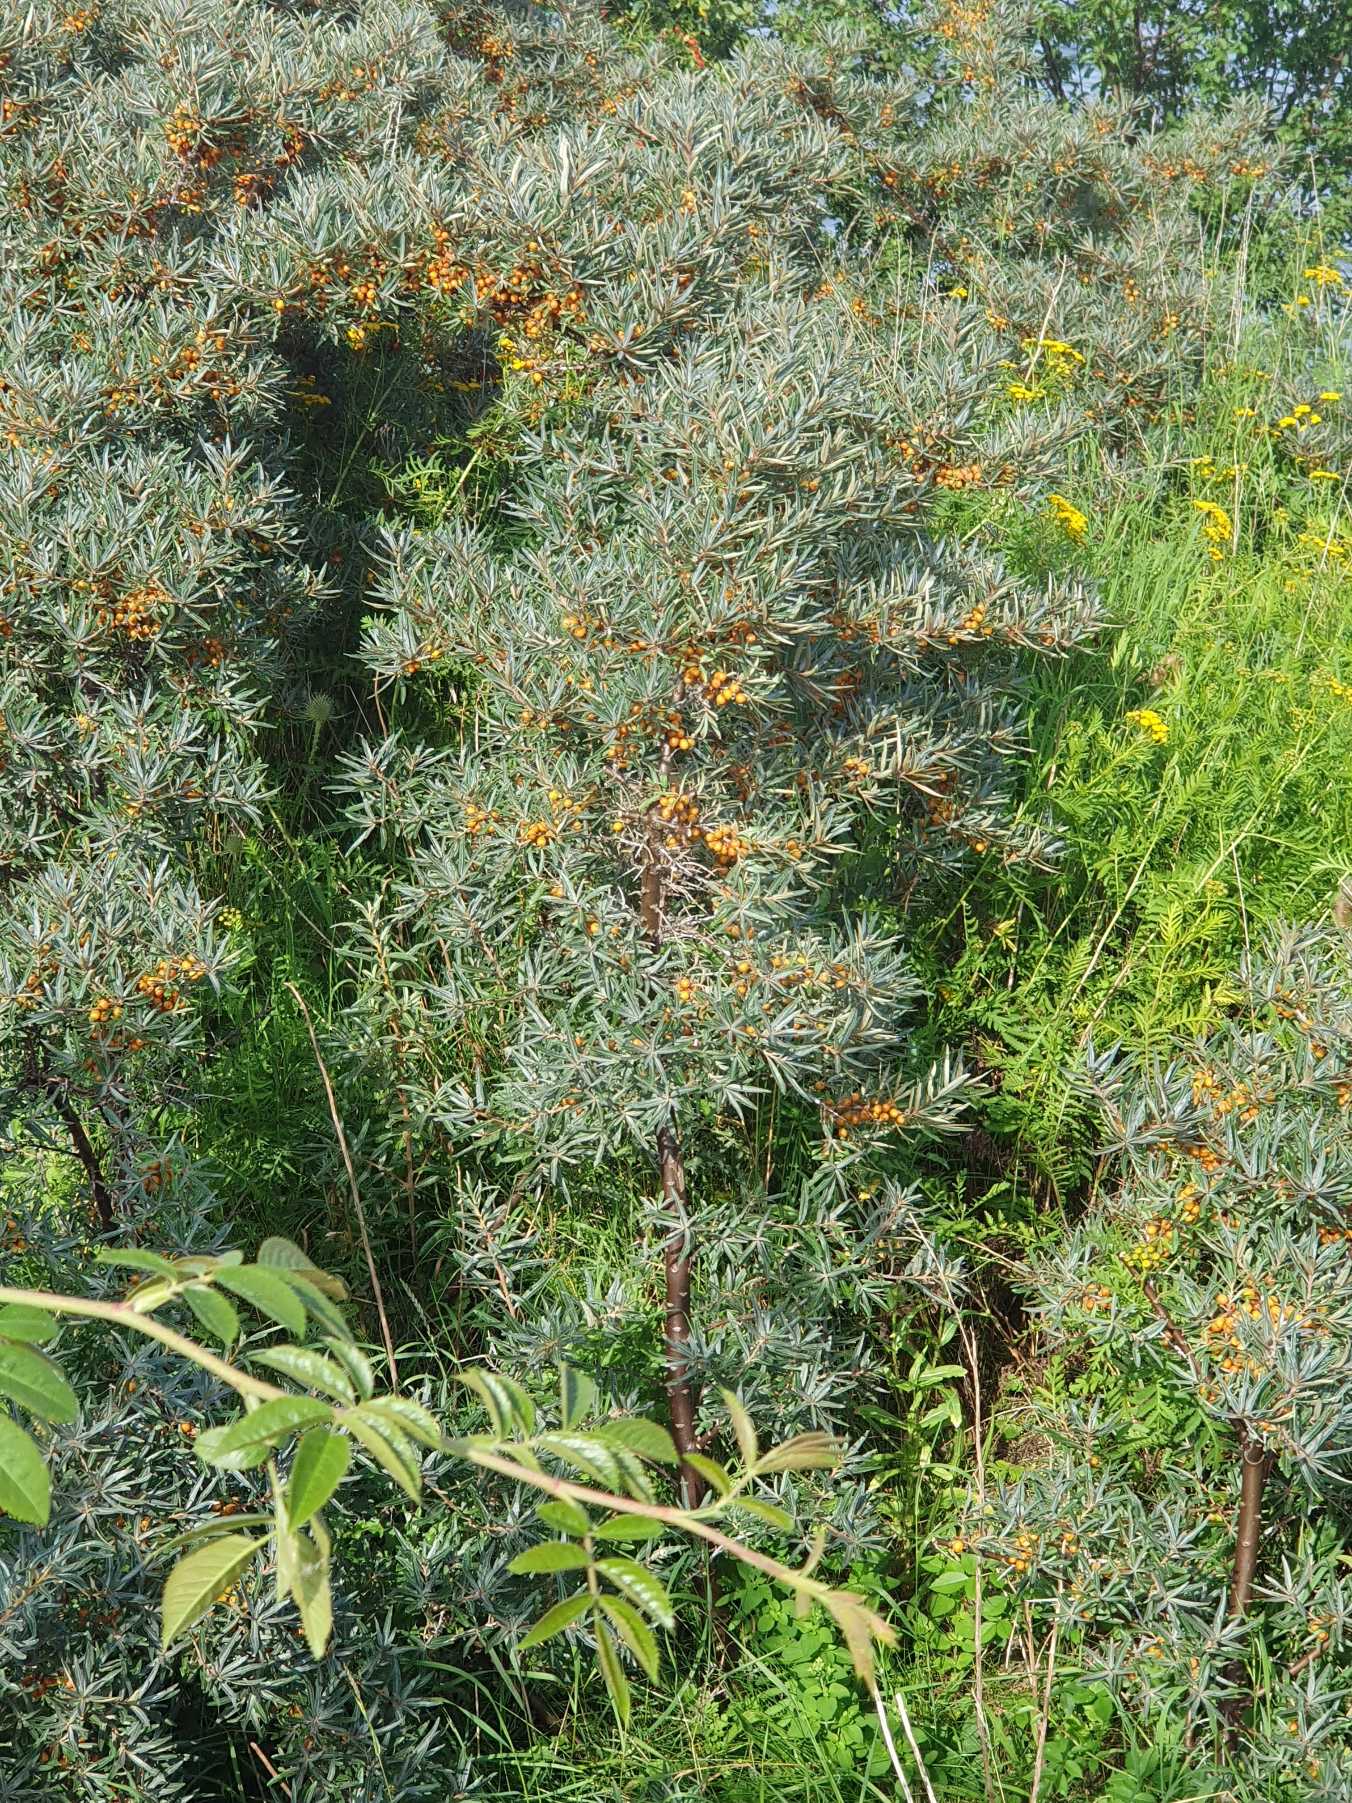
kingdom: Plantae
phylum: Tracheophyta
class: Magnoliopsida
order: Rosales
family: Elaeagnaceae
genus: Hippophae
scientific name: Hippophae rhamnoides
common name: Havtorn
